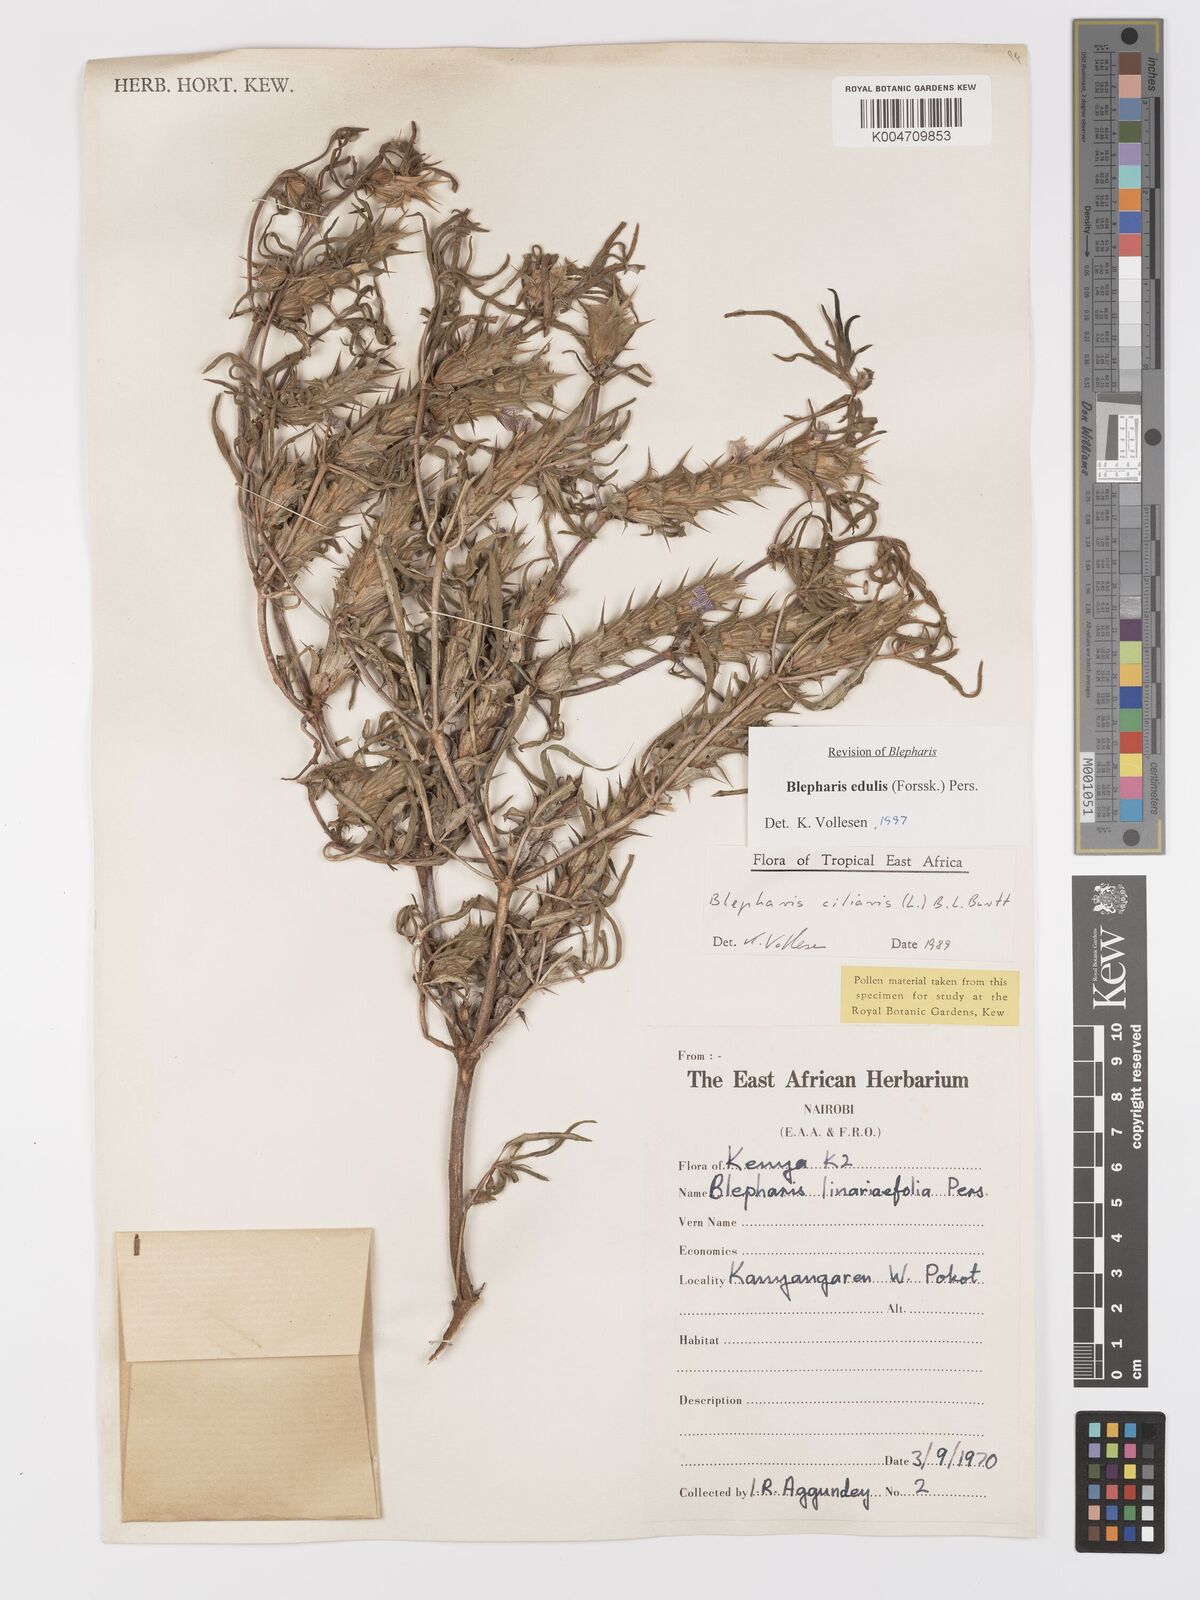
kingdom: Plantae
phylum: Tracheophyta
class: Magnoliopsida
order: Lamiales
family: Acanthaceae
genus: Blepharis
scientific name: Blepharis edulis
